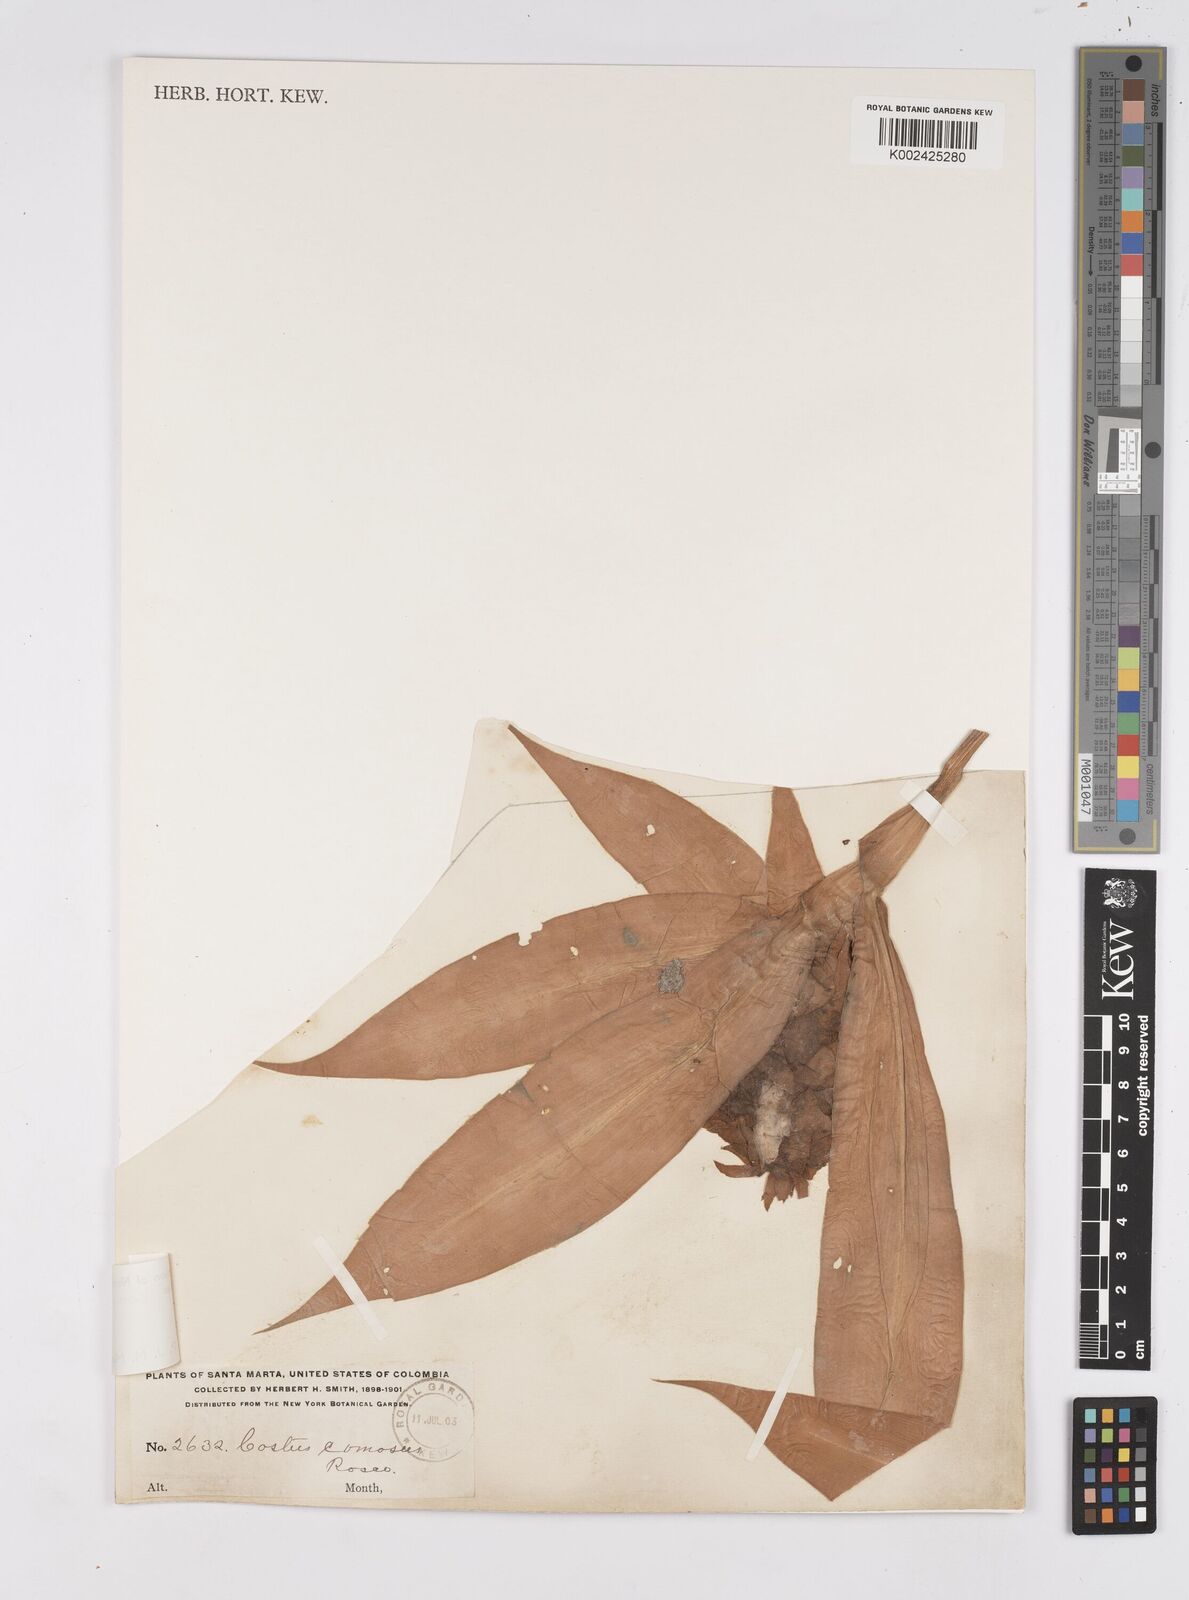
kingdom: Plantae
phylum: Tracheophyta
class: Liliopsida
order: Zingiberales
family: Costaceae
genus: Costus
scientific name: Costus comosus
